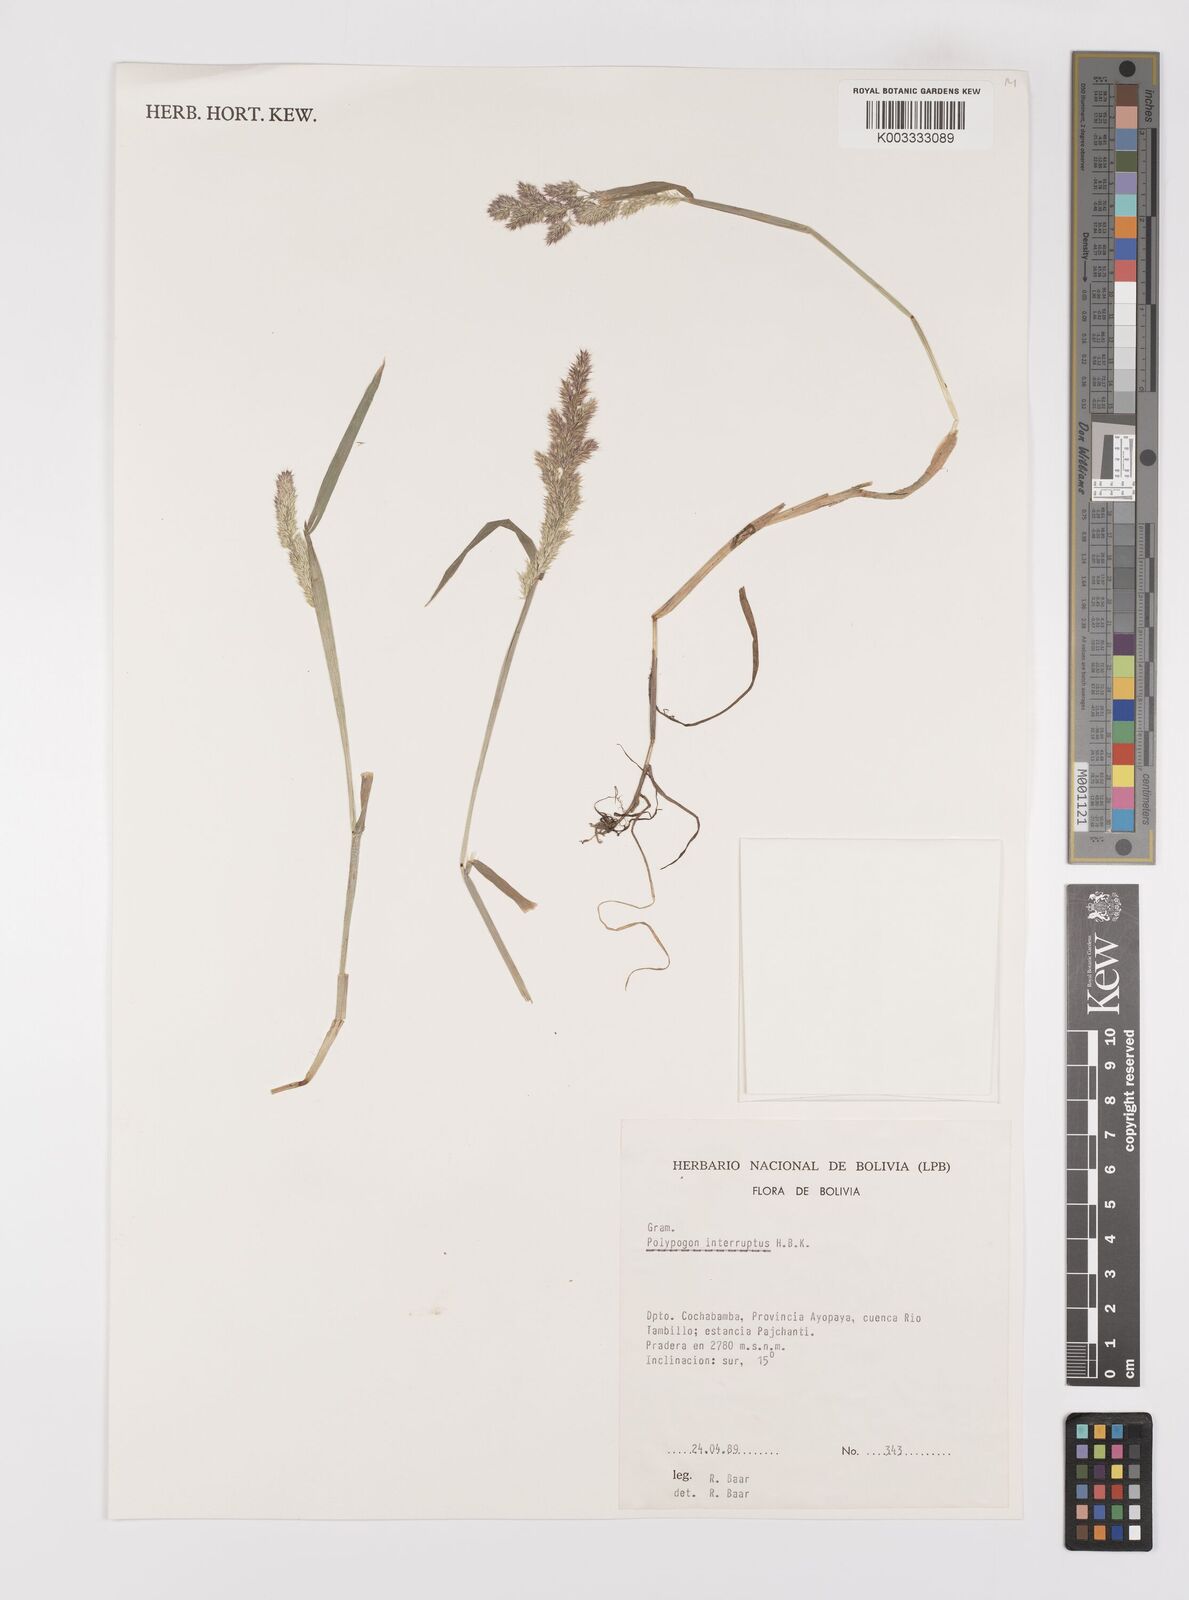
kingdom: Plantae
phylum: Tracheophyta
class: Liliopsida
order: Poales
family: Poaceae
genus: Polypogon
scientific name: Polypogon interruptus
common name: Ditch polypogon
